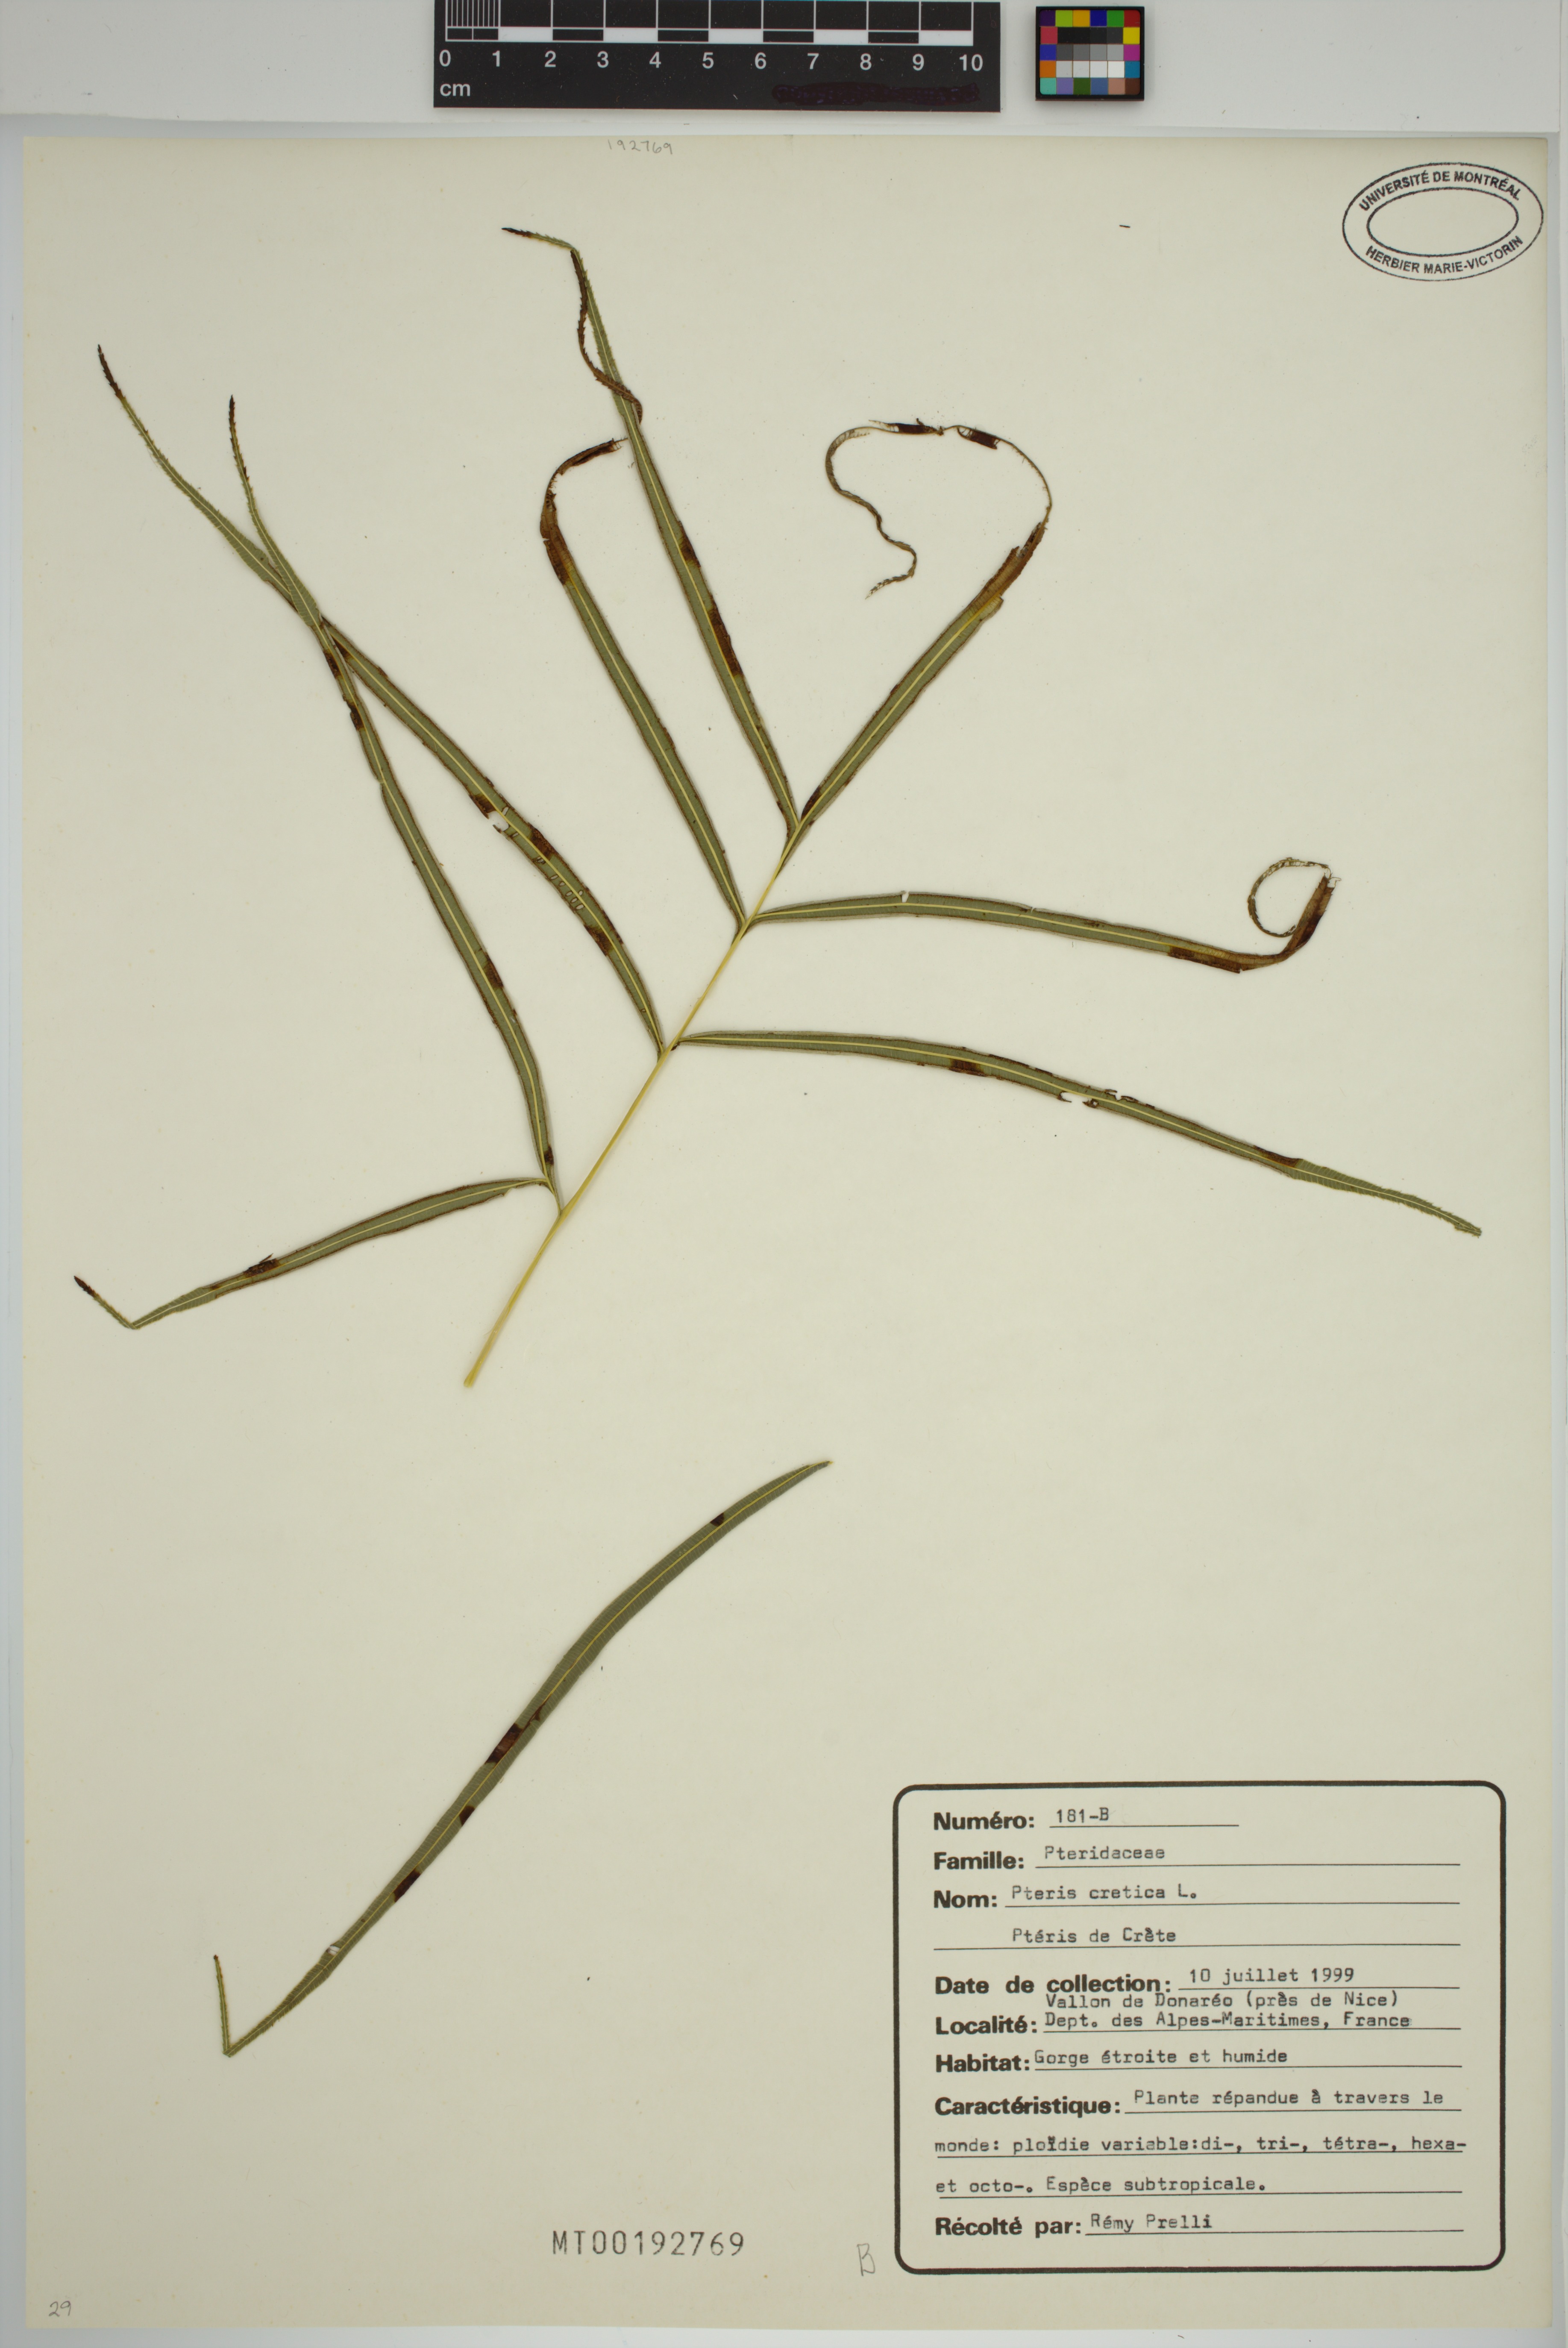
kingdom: Plantae
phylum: Tracheophyta
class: Polypodiopsida
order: Polypodiales
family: Pteridaceae
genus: Pteris
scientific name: Pteris cretica
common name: Ribbon fern
